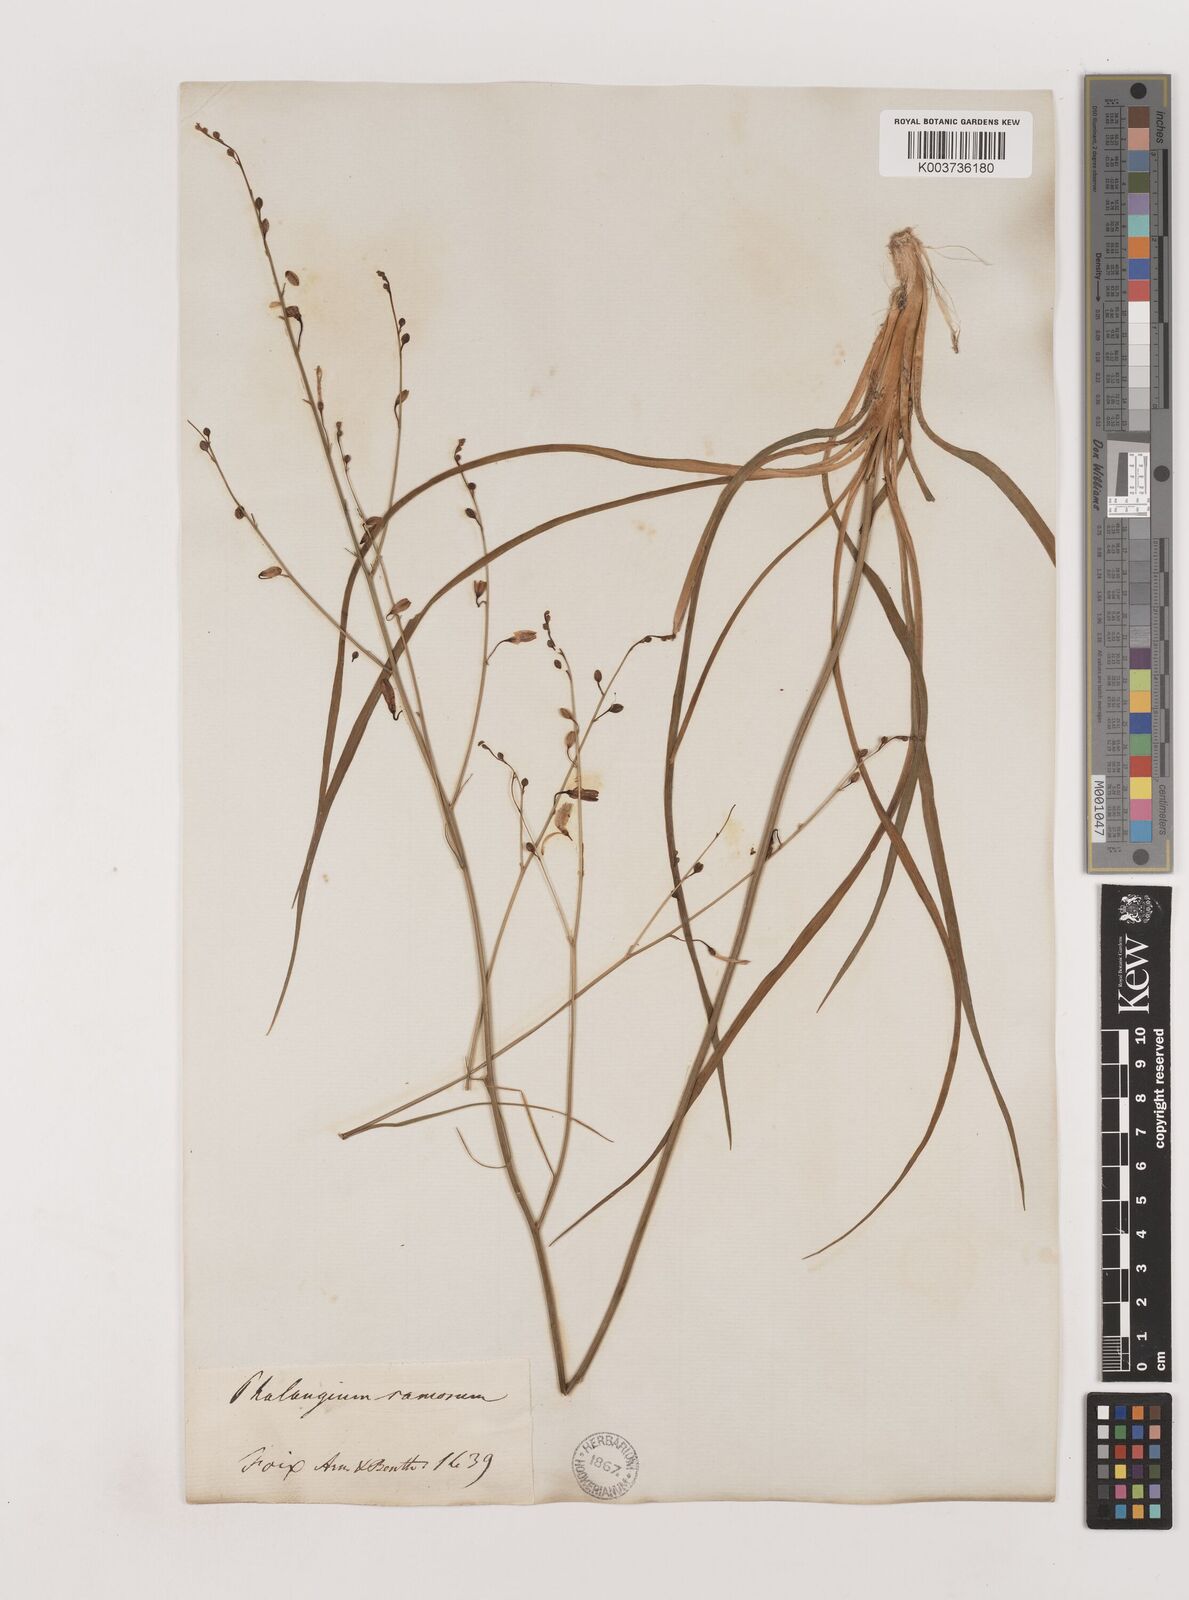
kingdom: Plantae
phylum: Tracheophyta
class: Liliopsida
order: Asparagales
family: Asparagaceae
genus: Anthericum
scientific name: Anthericum ramosum
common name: Branched st. bernard's-lily
